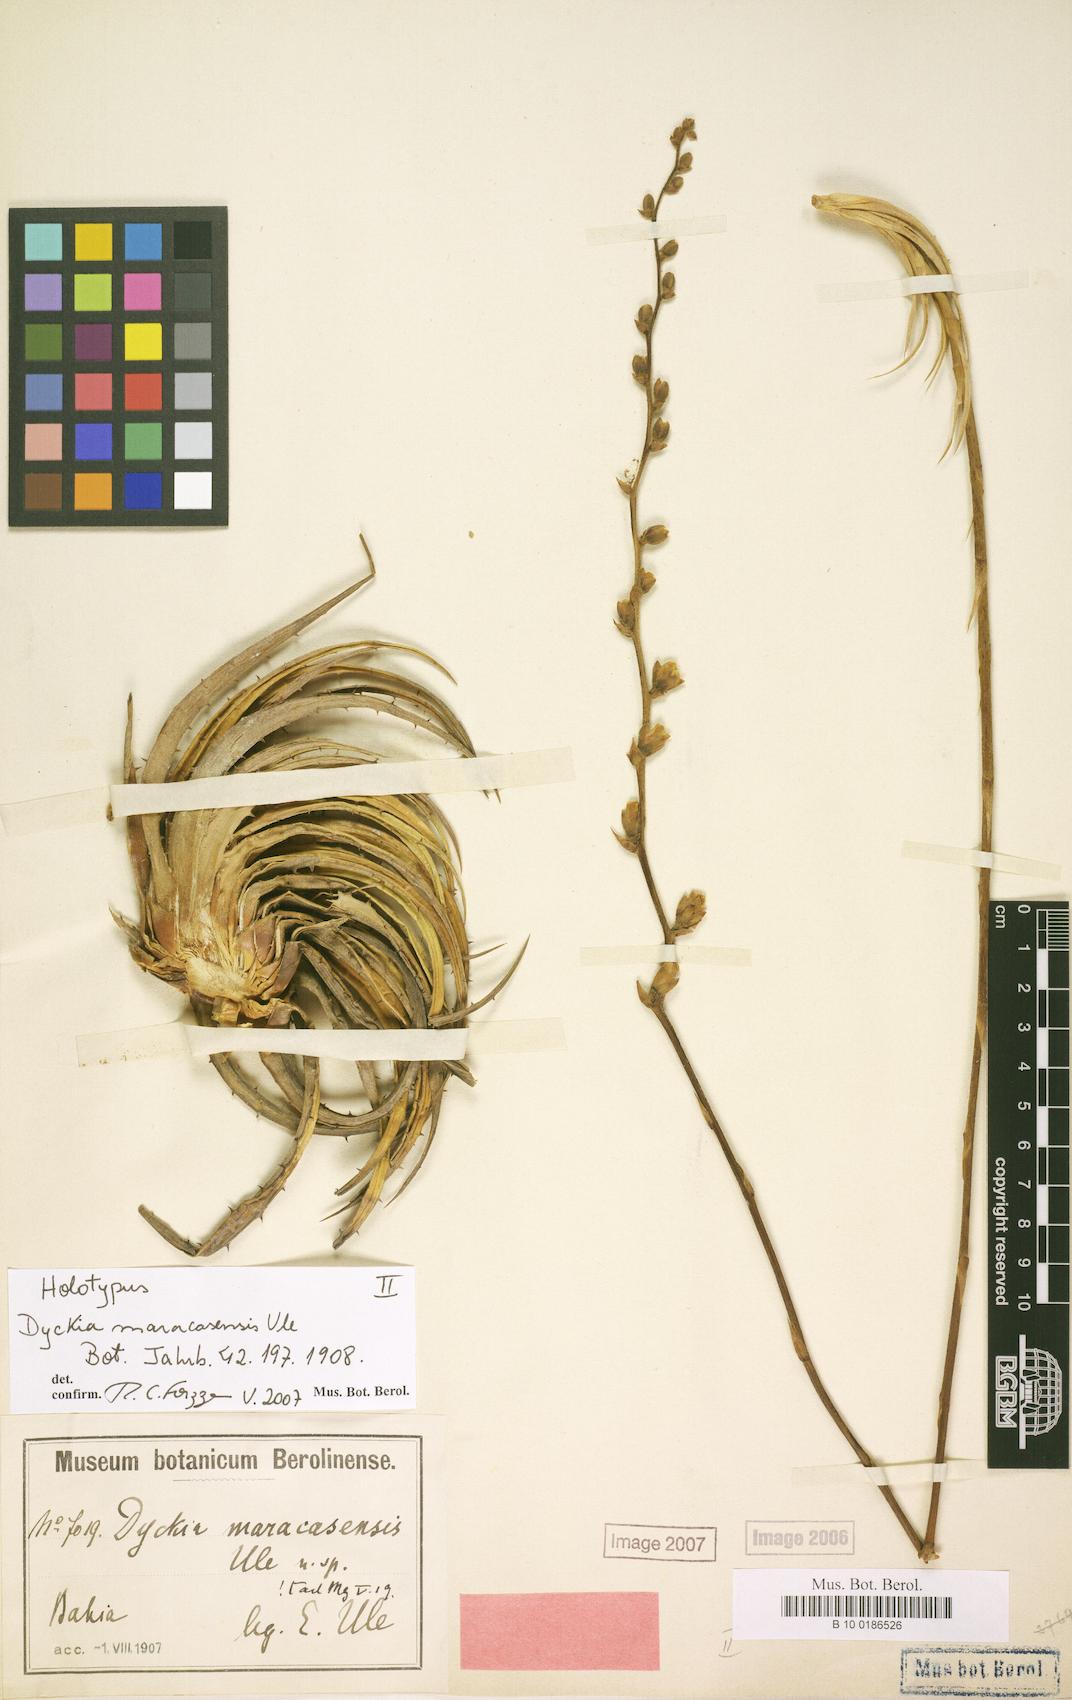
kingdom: Plantae
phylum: Tracheophyta
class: Liliopsida
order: Poales
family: Bromeliaceae
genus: Dyckia
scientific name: Dyckia maracasensis
